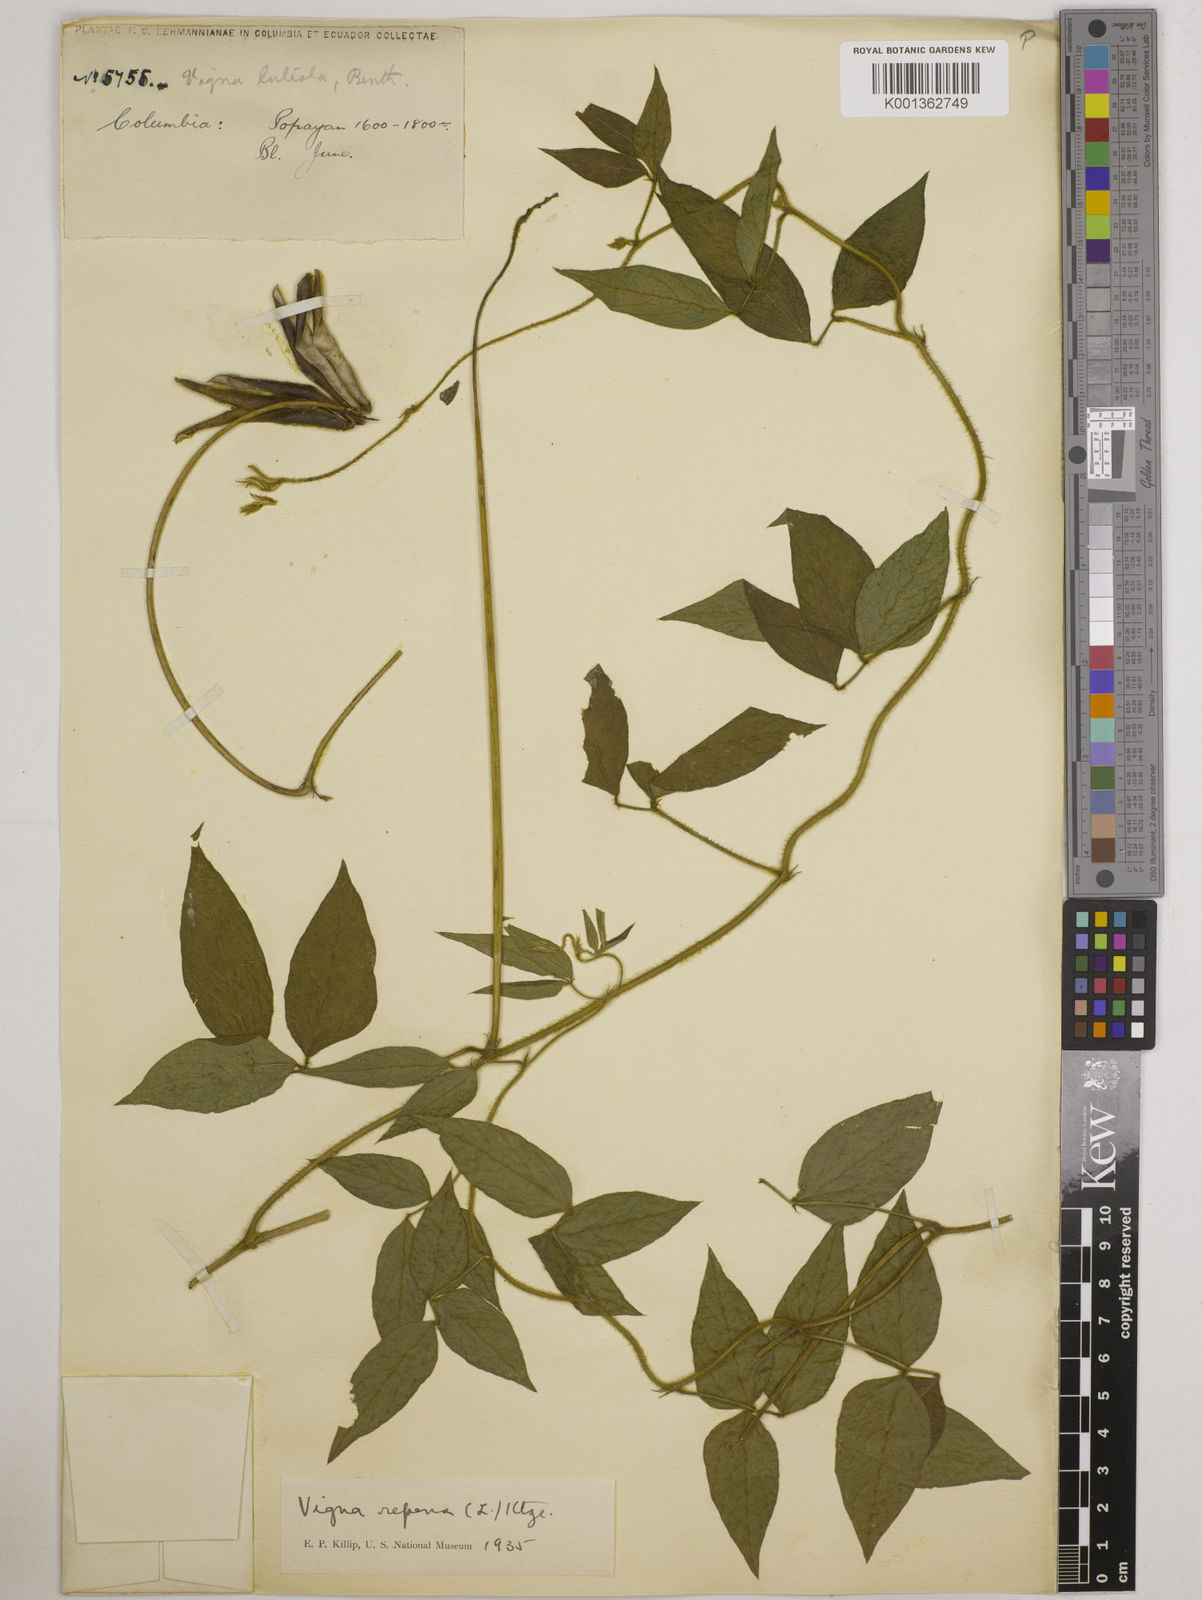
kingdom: Plantae
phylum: Tracheophyta
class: Magnoliopsida
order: Fabales
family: Fabaceae
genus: Vigna
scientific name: Vigna luteola
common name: Hairypod cowpea
